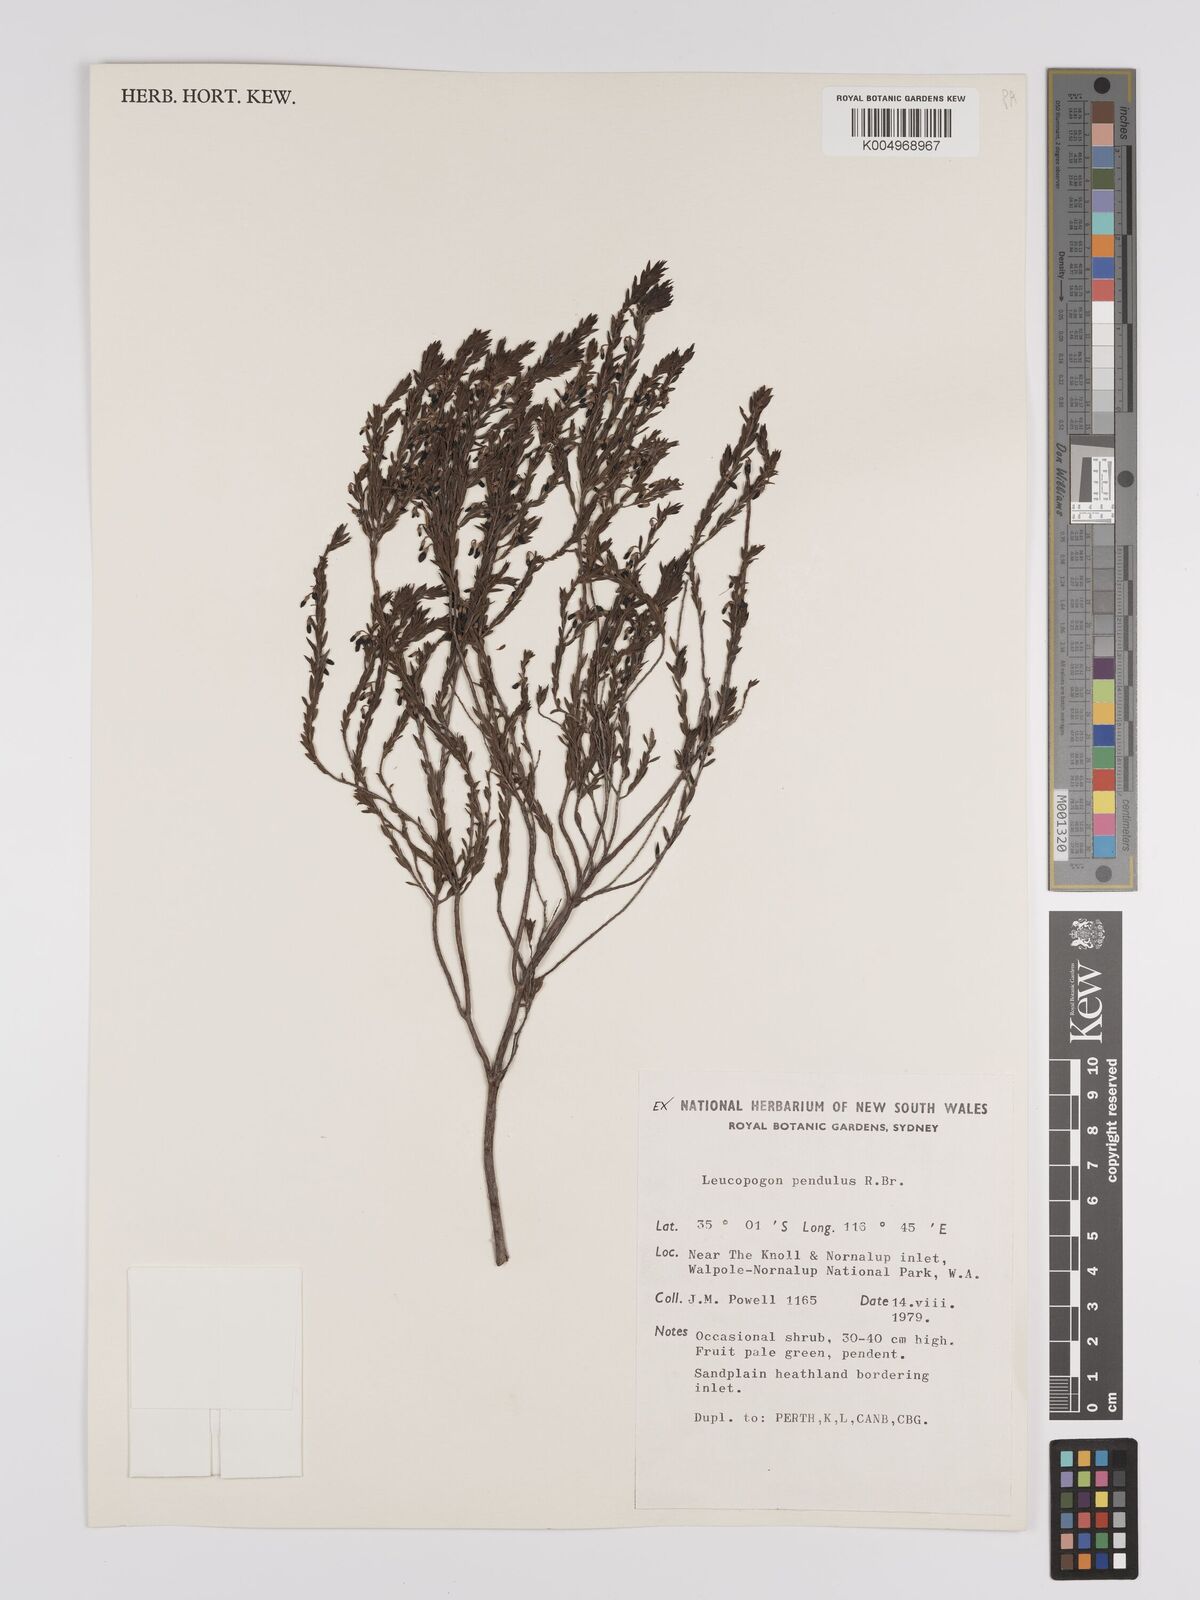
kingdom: Plantae
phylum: Tracheophyta
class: Magnoliopsida
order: Ericales
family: Ericaceae
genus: Styphelia
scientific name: Styphelia pendula
